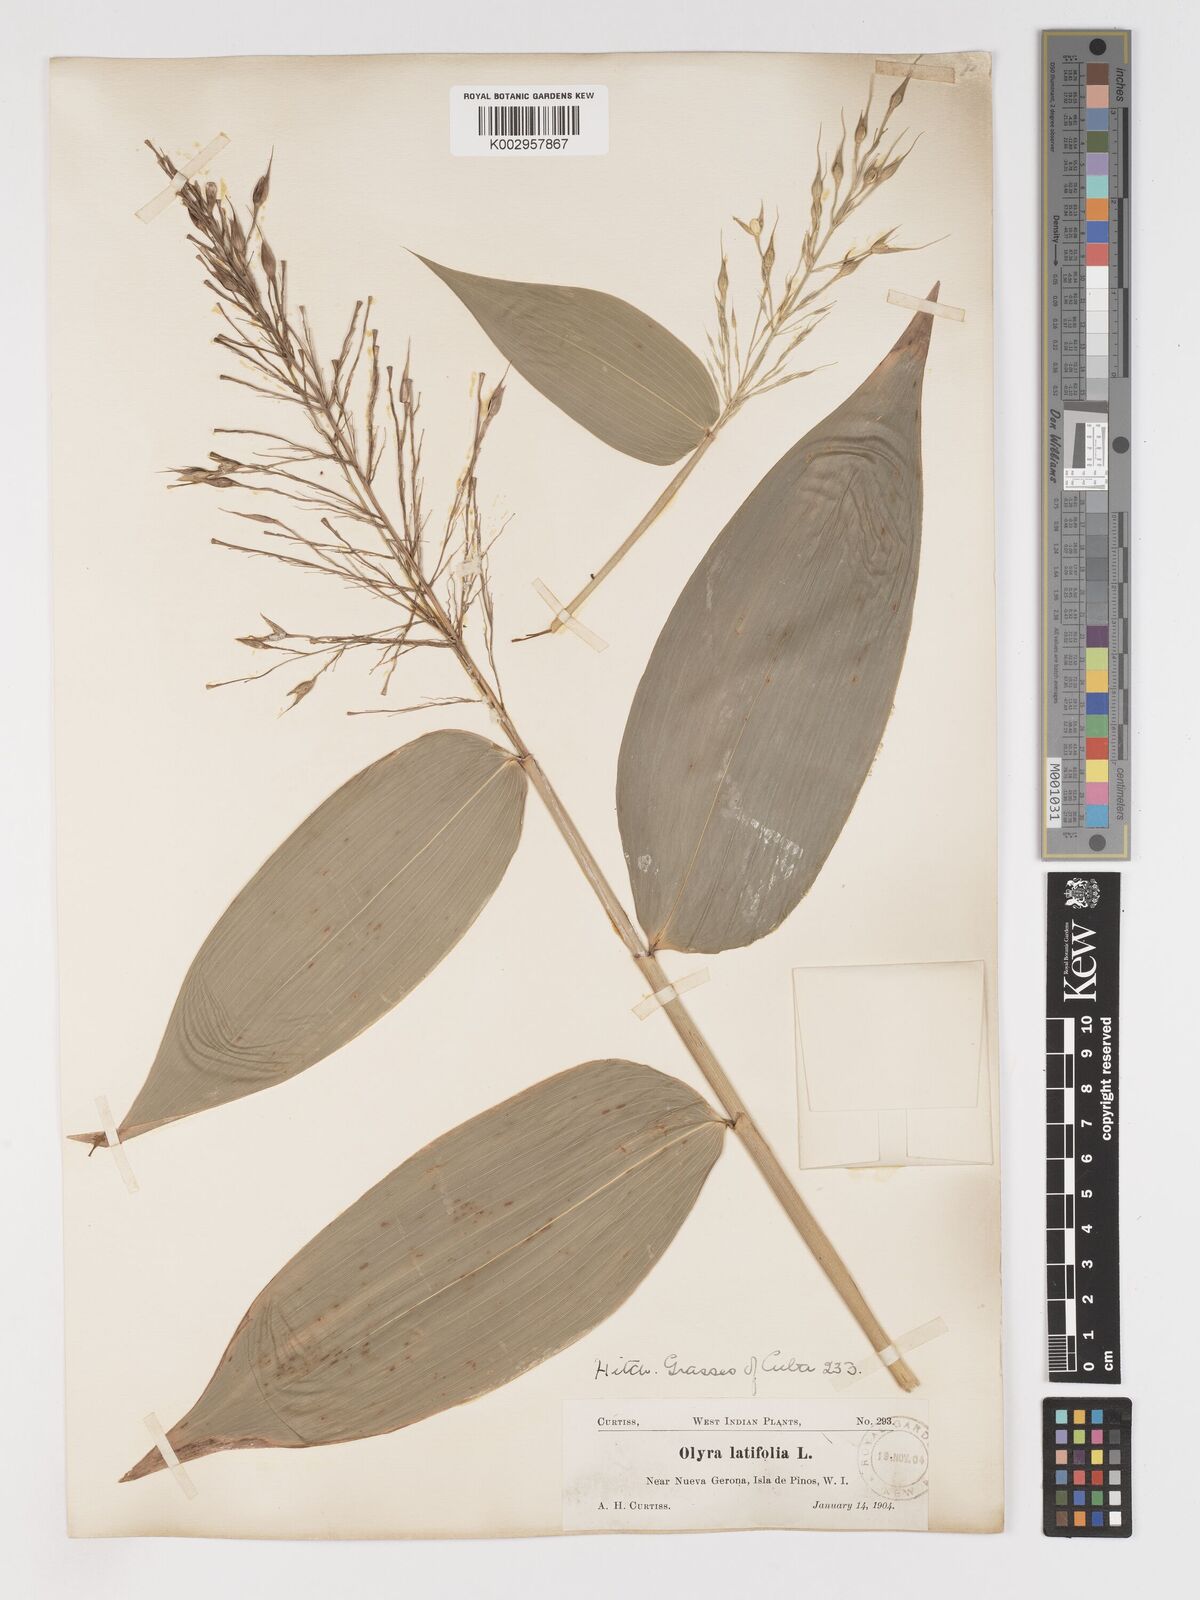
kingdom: Plantae
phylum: Tracheophyta
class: Liliopsida
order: Poales
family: Poaceae
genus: Olyra
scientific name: Olyra latifolia
